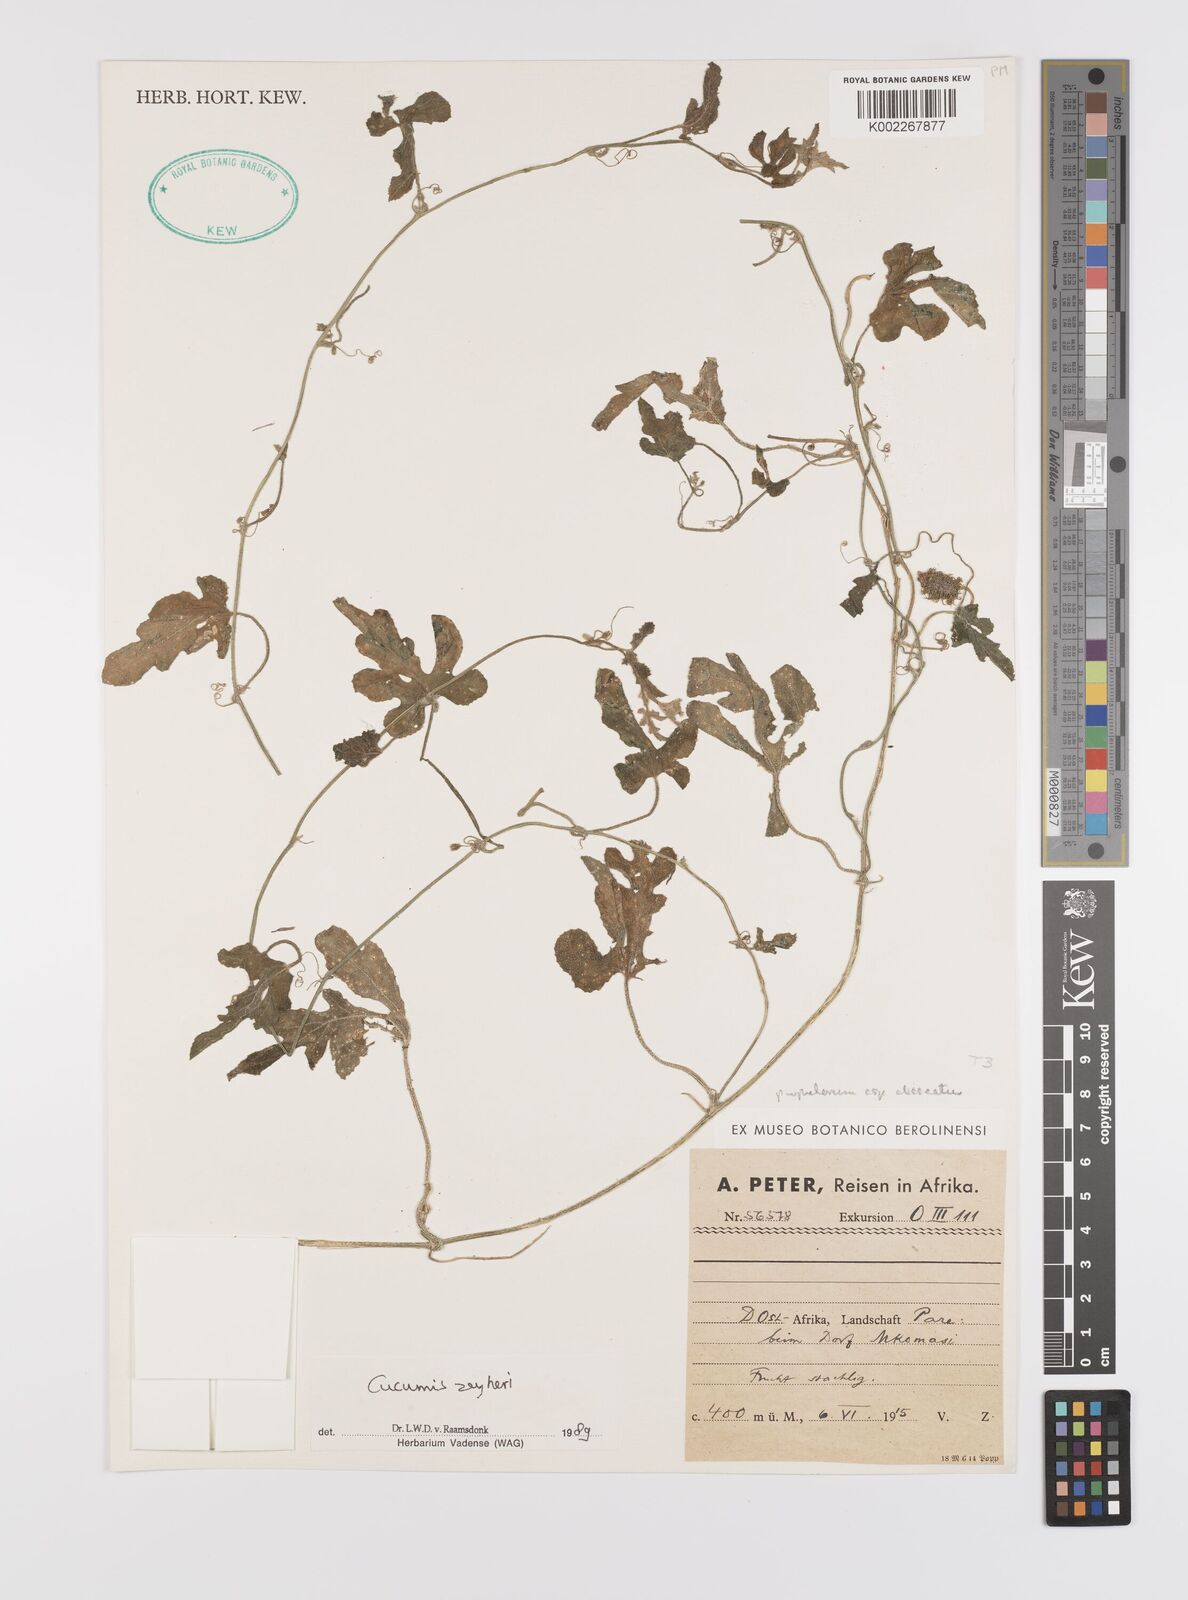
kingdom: Plantae
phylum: Tracheophyta
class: Magnoliopsida
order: Cucurbitales
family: Cucurbitaceae
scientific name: Cucurbitaceae
